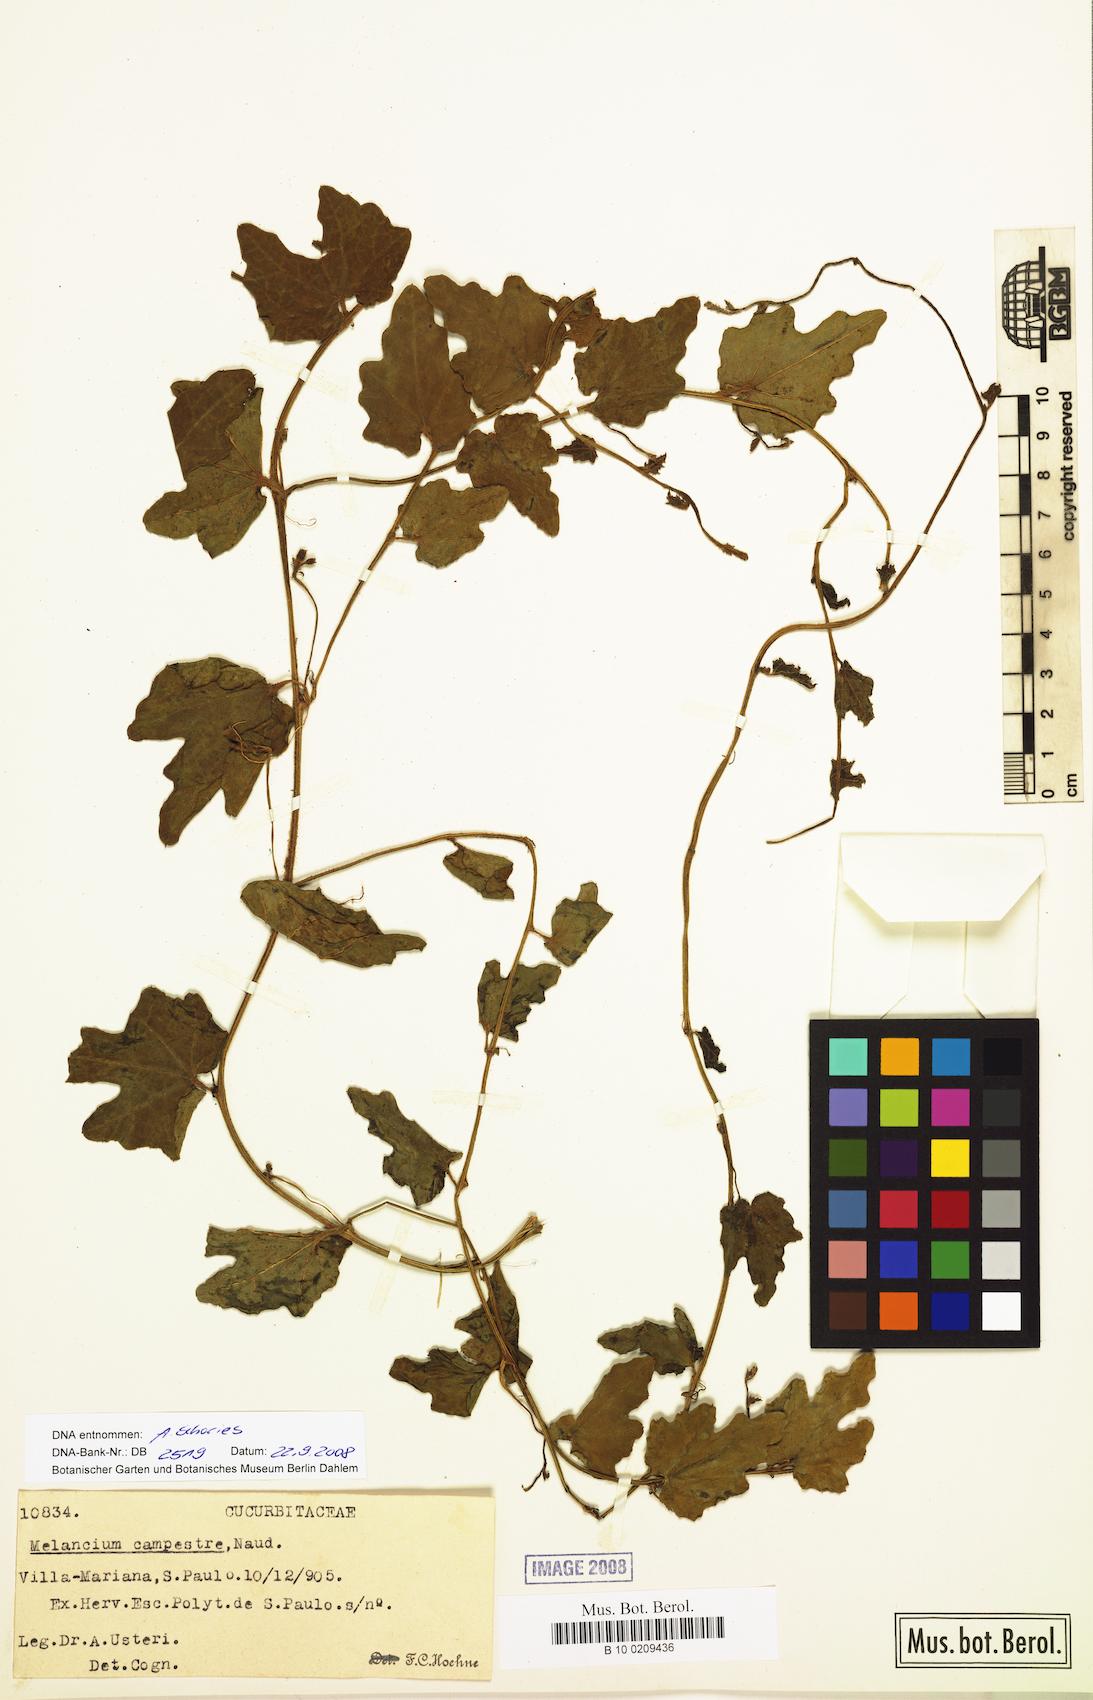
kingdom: Plantae
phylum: Tracheophyta
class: Magnoliopsida
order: Cucurbitales
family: Cucurbitaceae
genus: Melothria
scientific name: Melothria campestris
